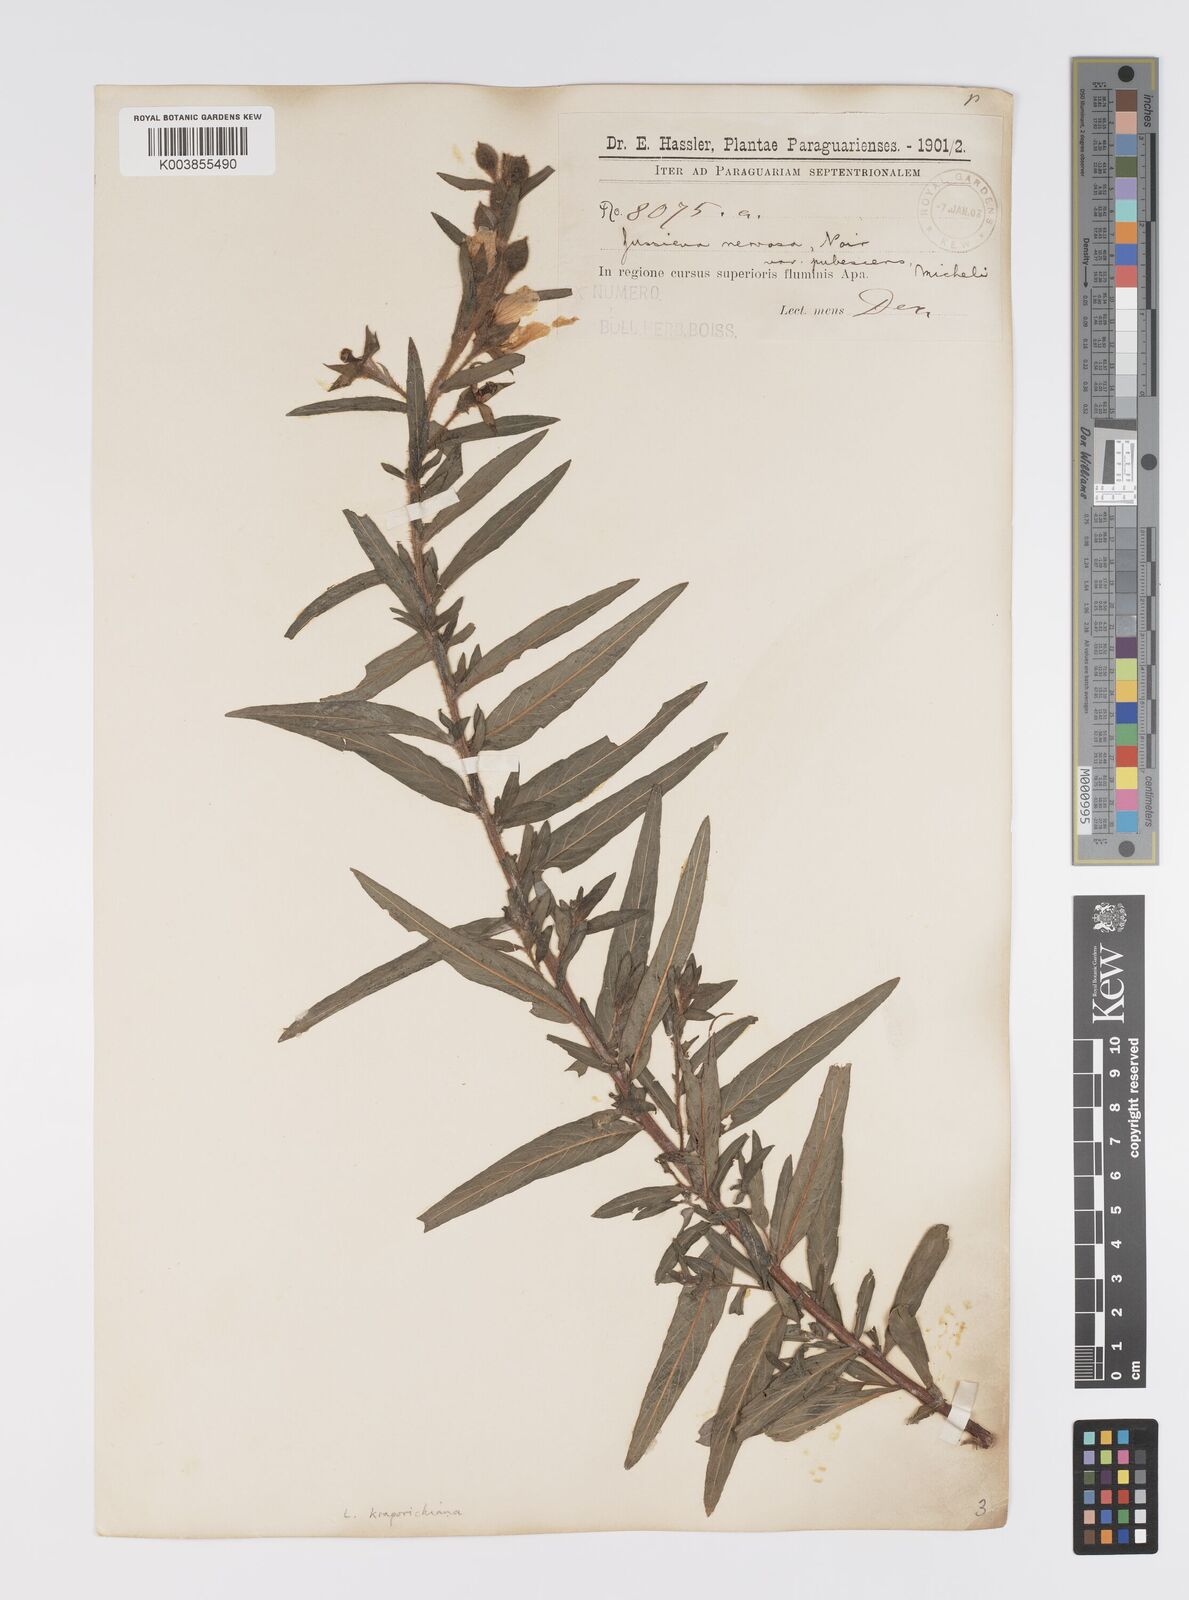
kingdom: Plantae
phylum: Tracheophyta
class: Magnoliopsida
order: Myrtales
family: Onagraceae
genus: Ludwigia
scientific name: Ludwigia
